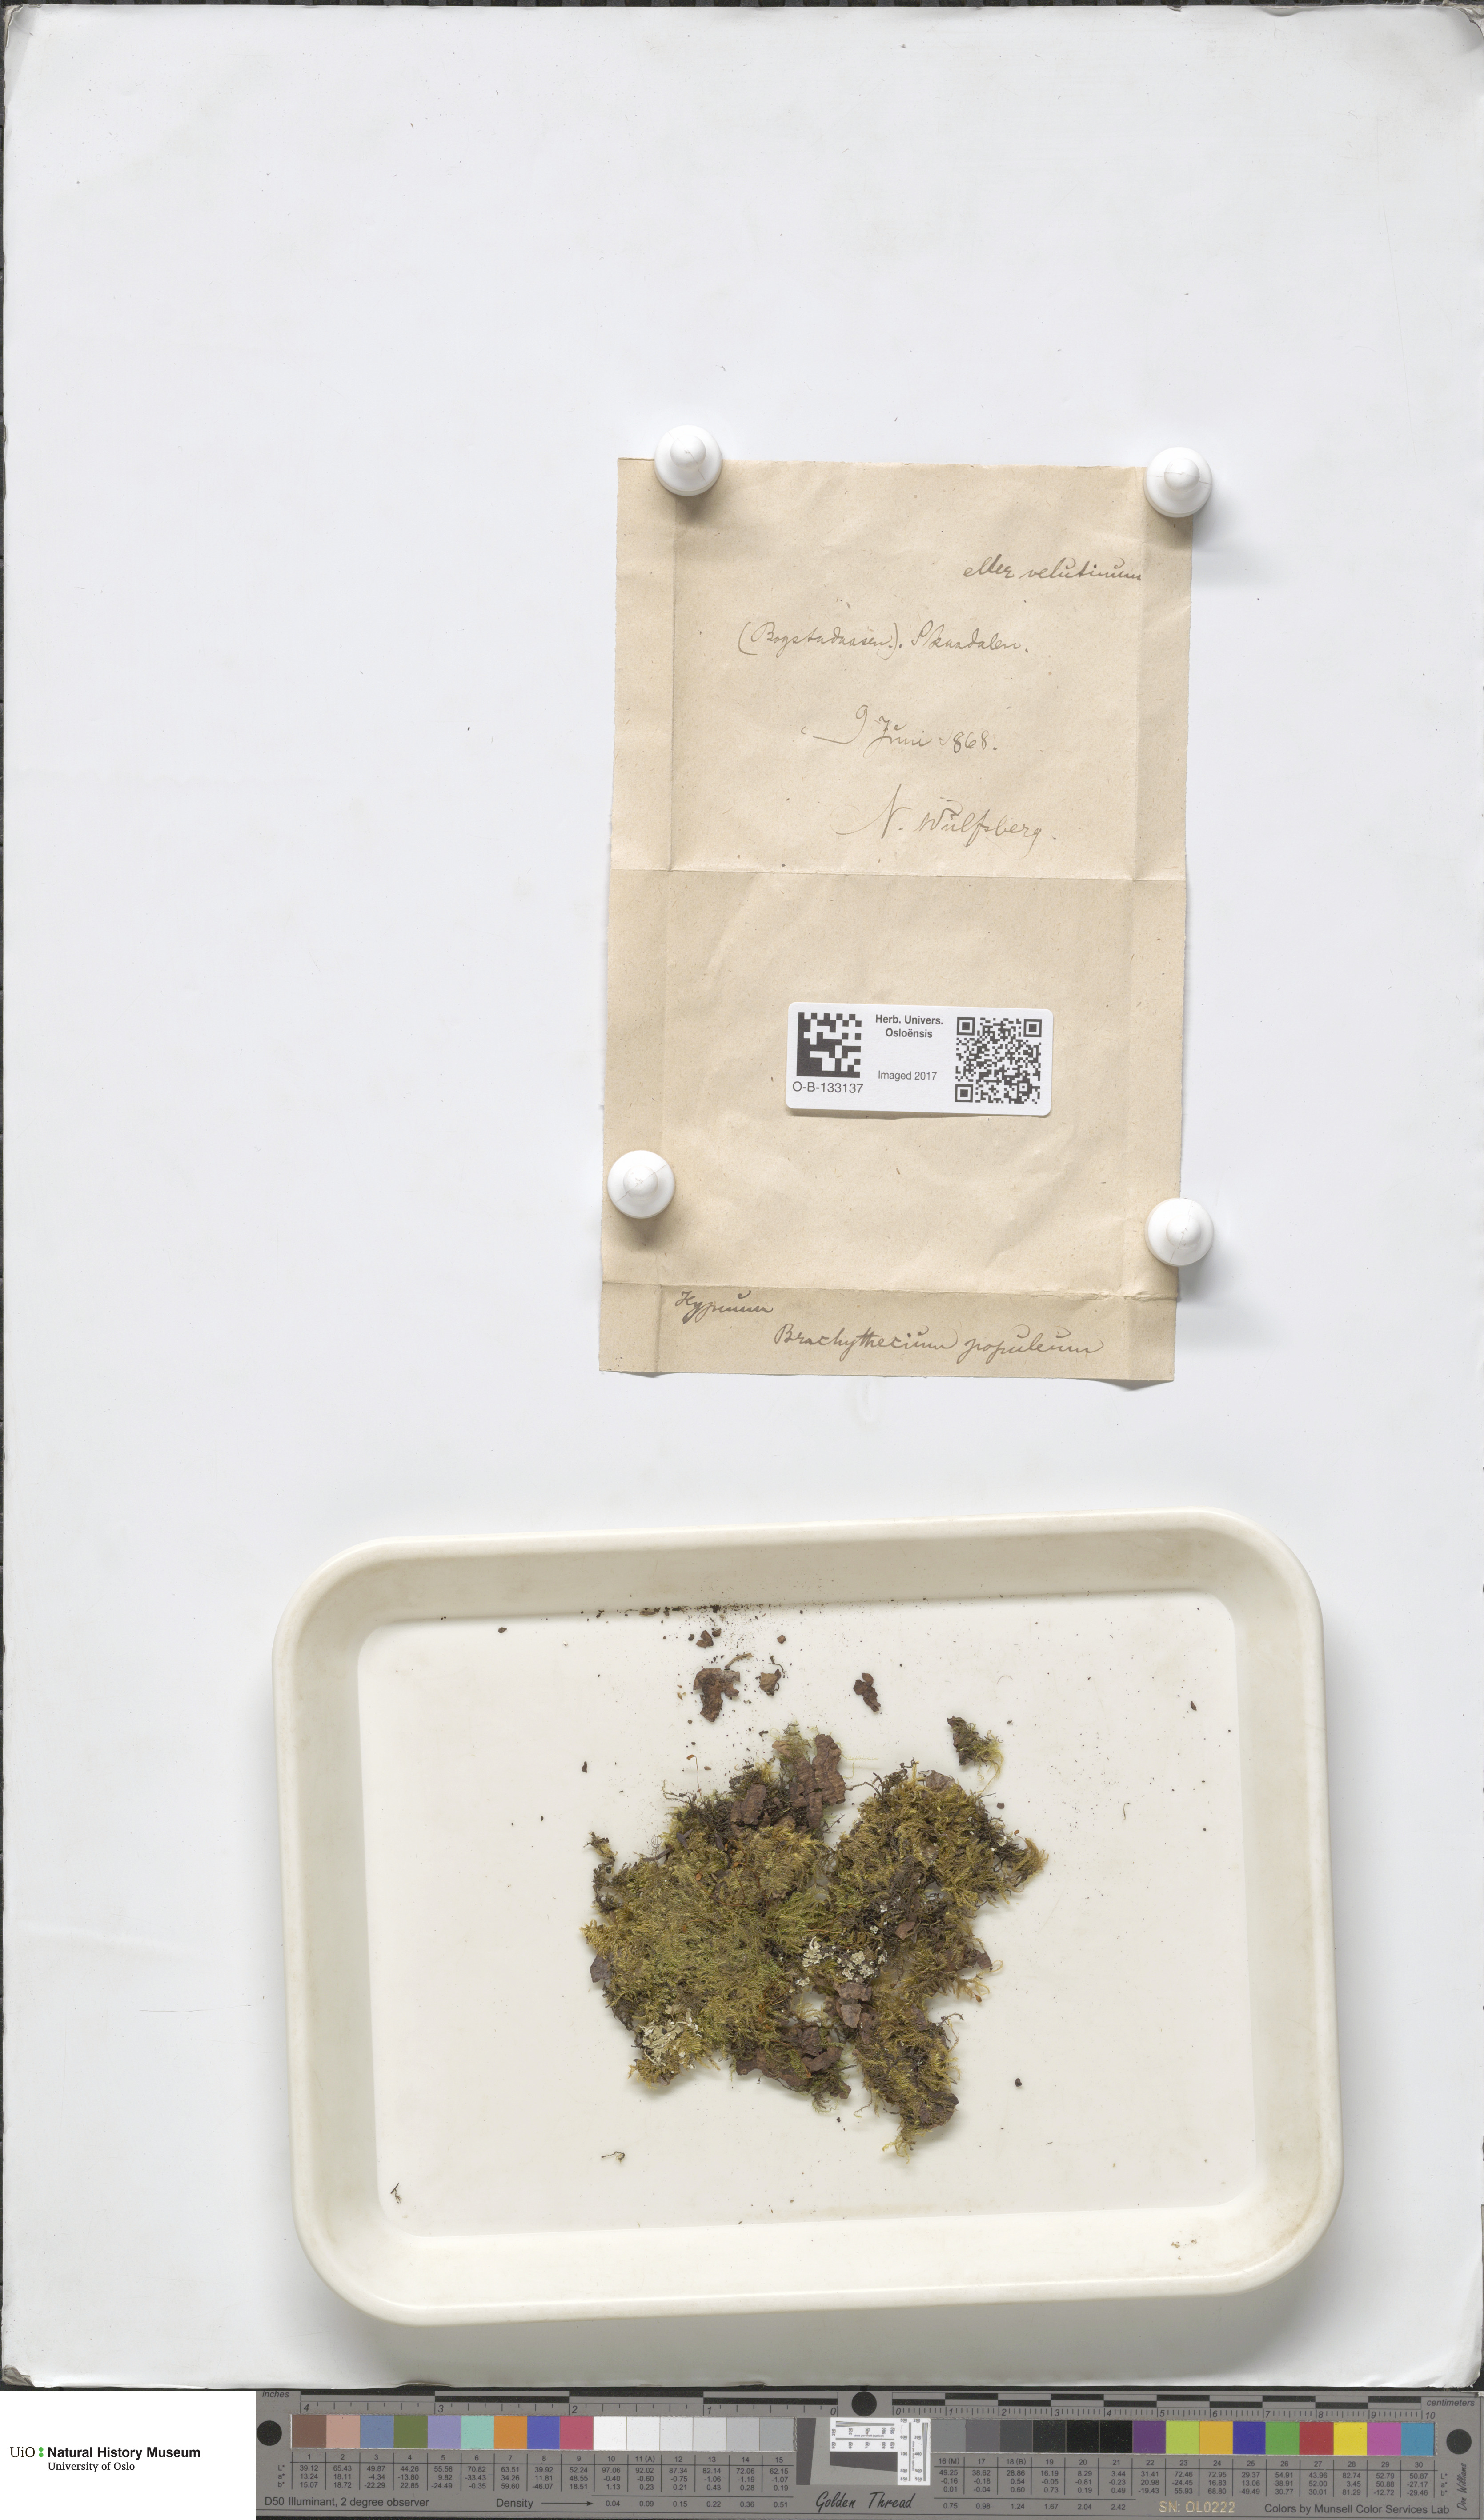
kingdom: Plantae
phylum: Bryophyta
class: Bryopsida
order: Hypnales
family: Brachytheciaceae
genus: Sciuro-hypnum
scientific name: Sciuro-hypnum plumosum
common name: Rusty feather-moss
